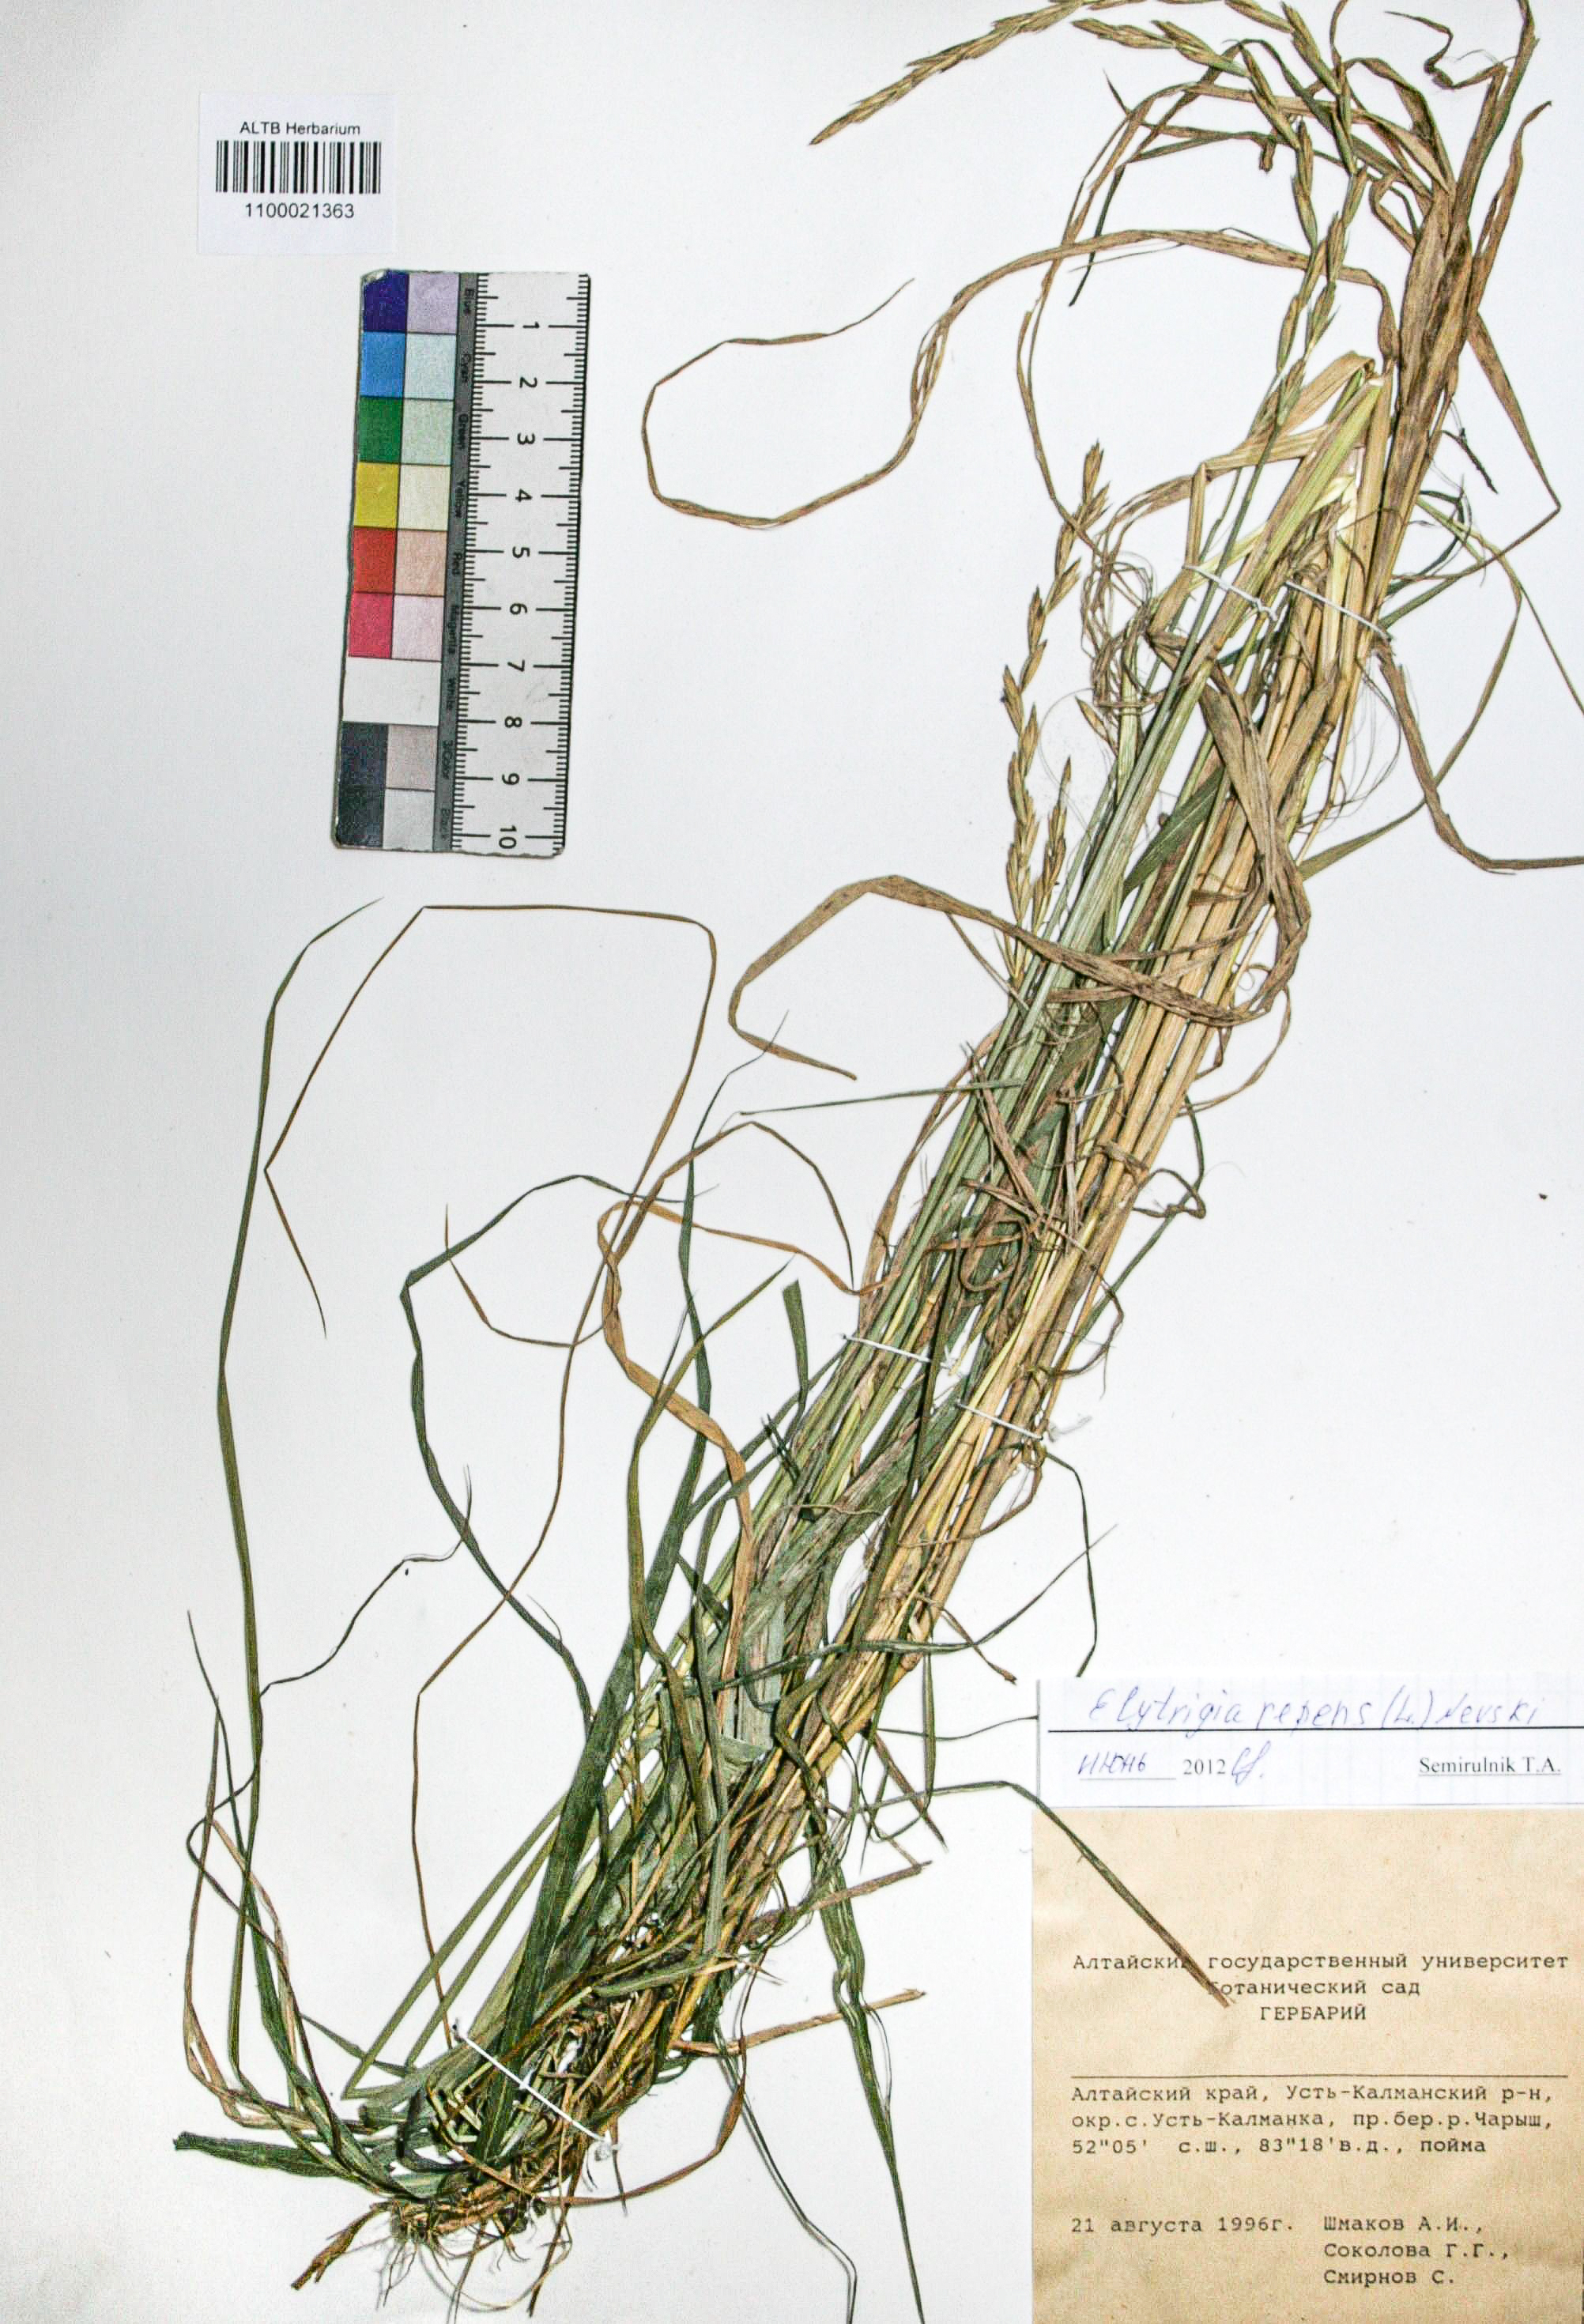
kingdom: Plantae
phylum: Tracheophyta
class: Liliopsida
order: Poales
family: Poaceae
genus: Elymus
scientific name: Elymus repens
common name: Quackgrass
